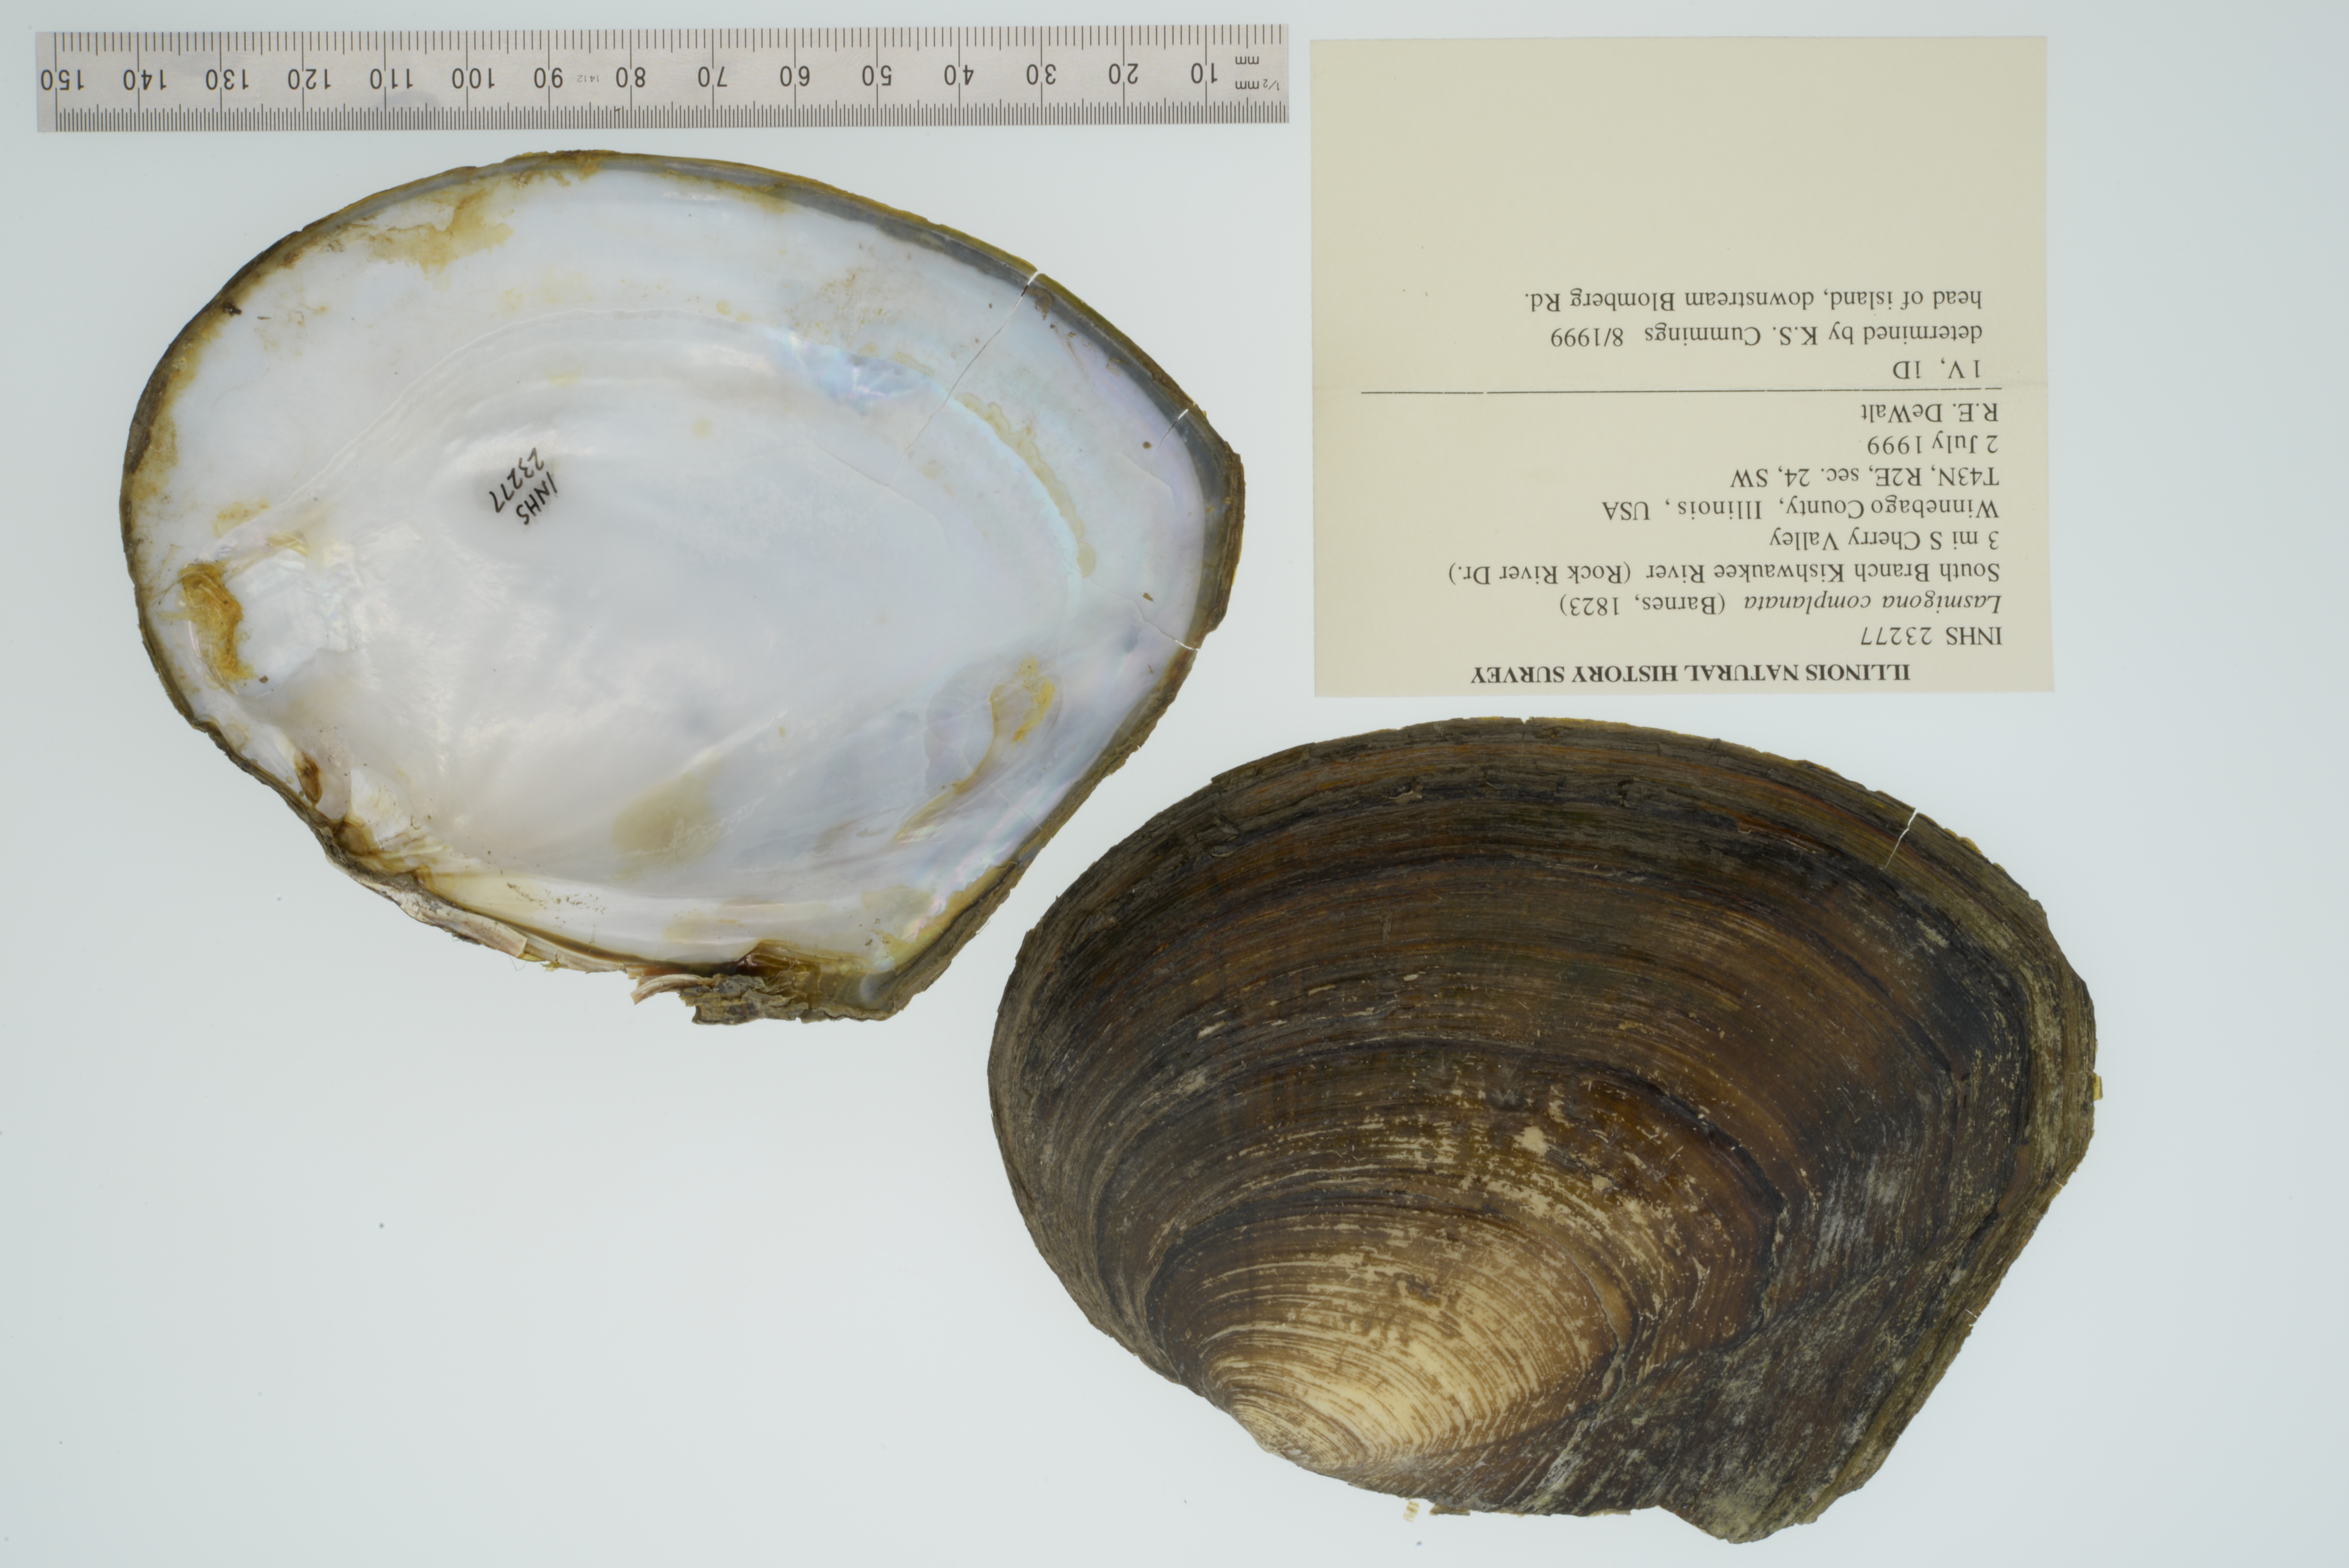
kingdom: Animalia
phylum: Mollusca
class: Bivalvia
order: Unionida
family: Unionidae
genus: Lasmigona
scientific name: Lasmigona complanata
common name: White heelsplitter
